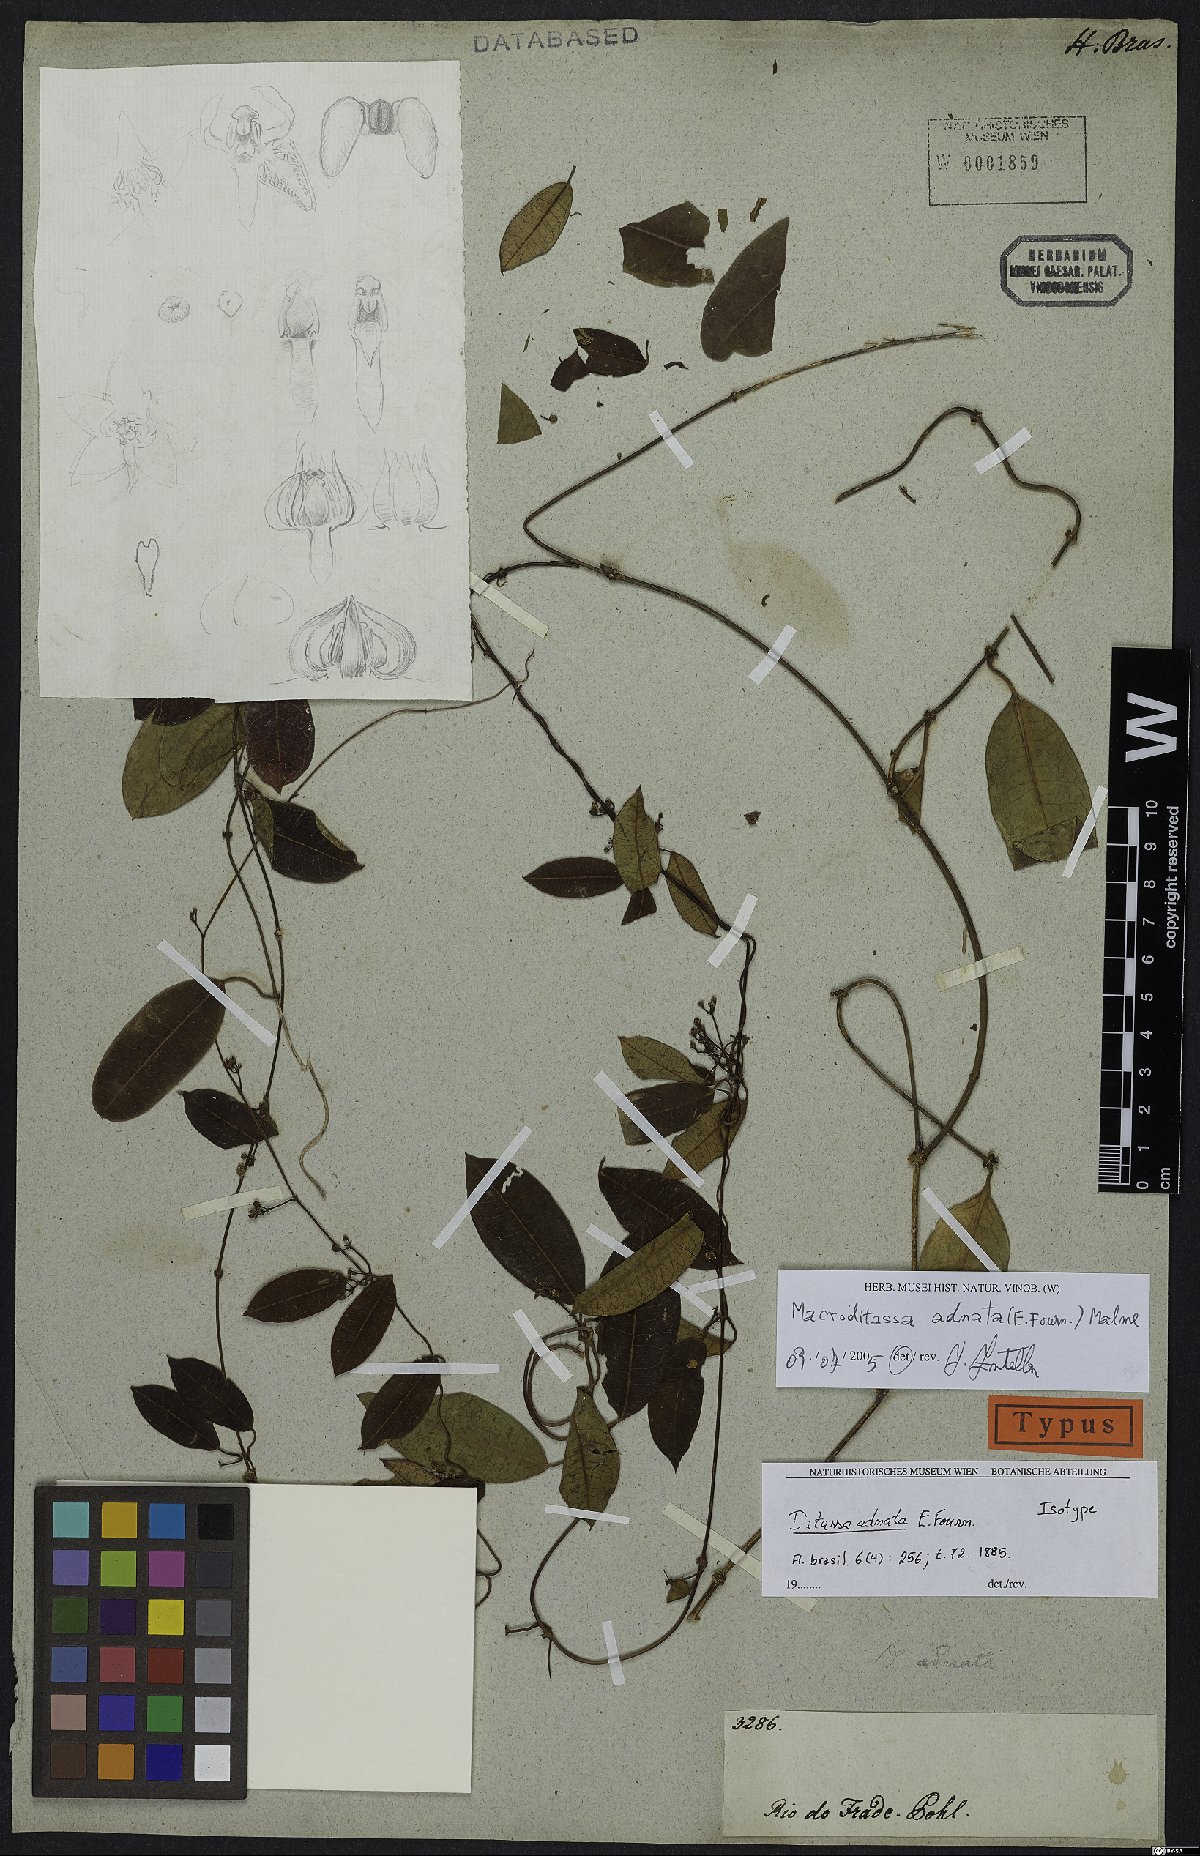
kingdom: Plantae
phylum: Tracheophyta
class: Magnoliopsida
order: Gentianales
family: Apocynaceae
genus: Peplonia
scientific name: Peplonia adnata
